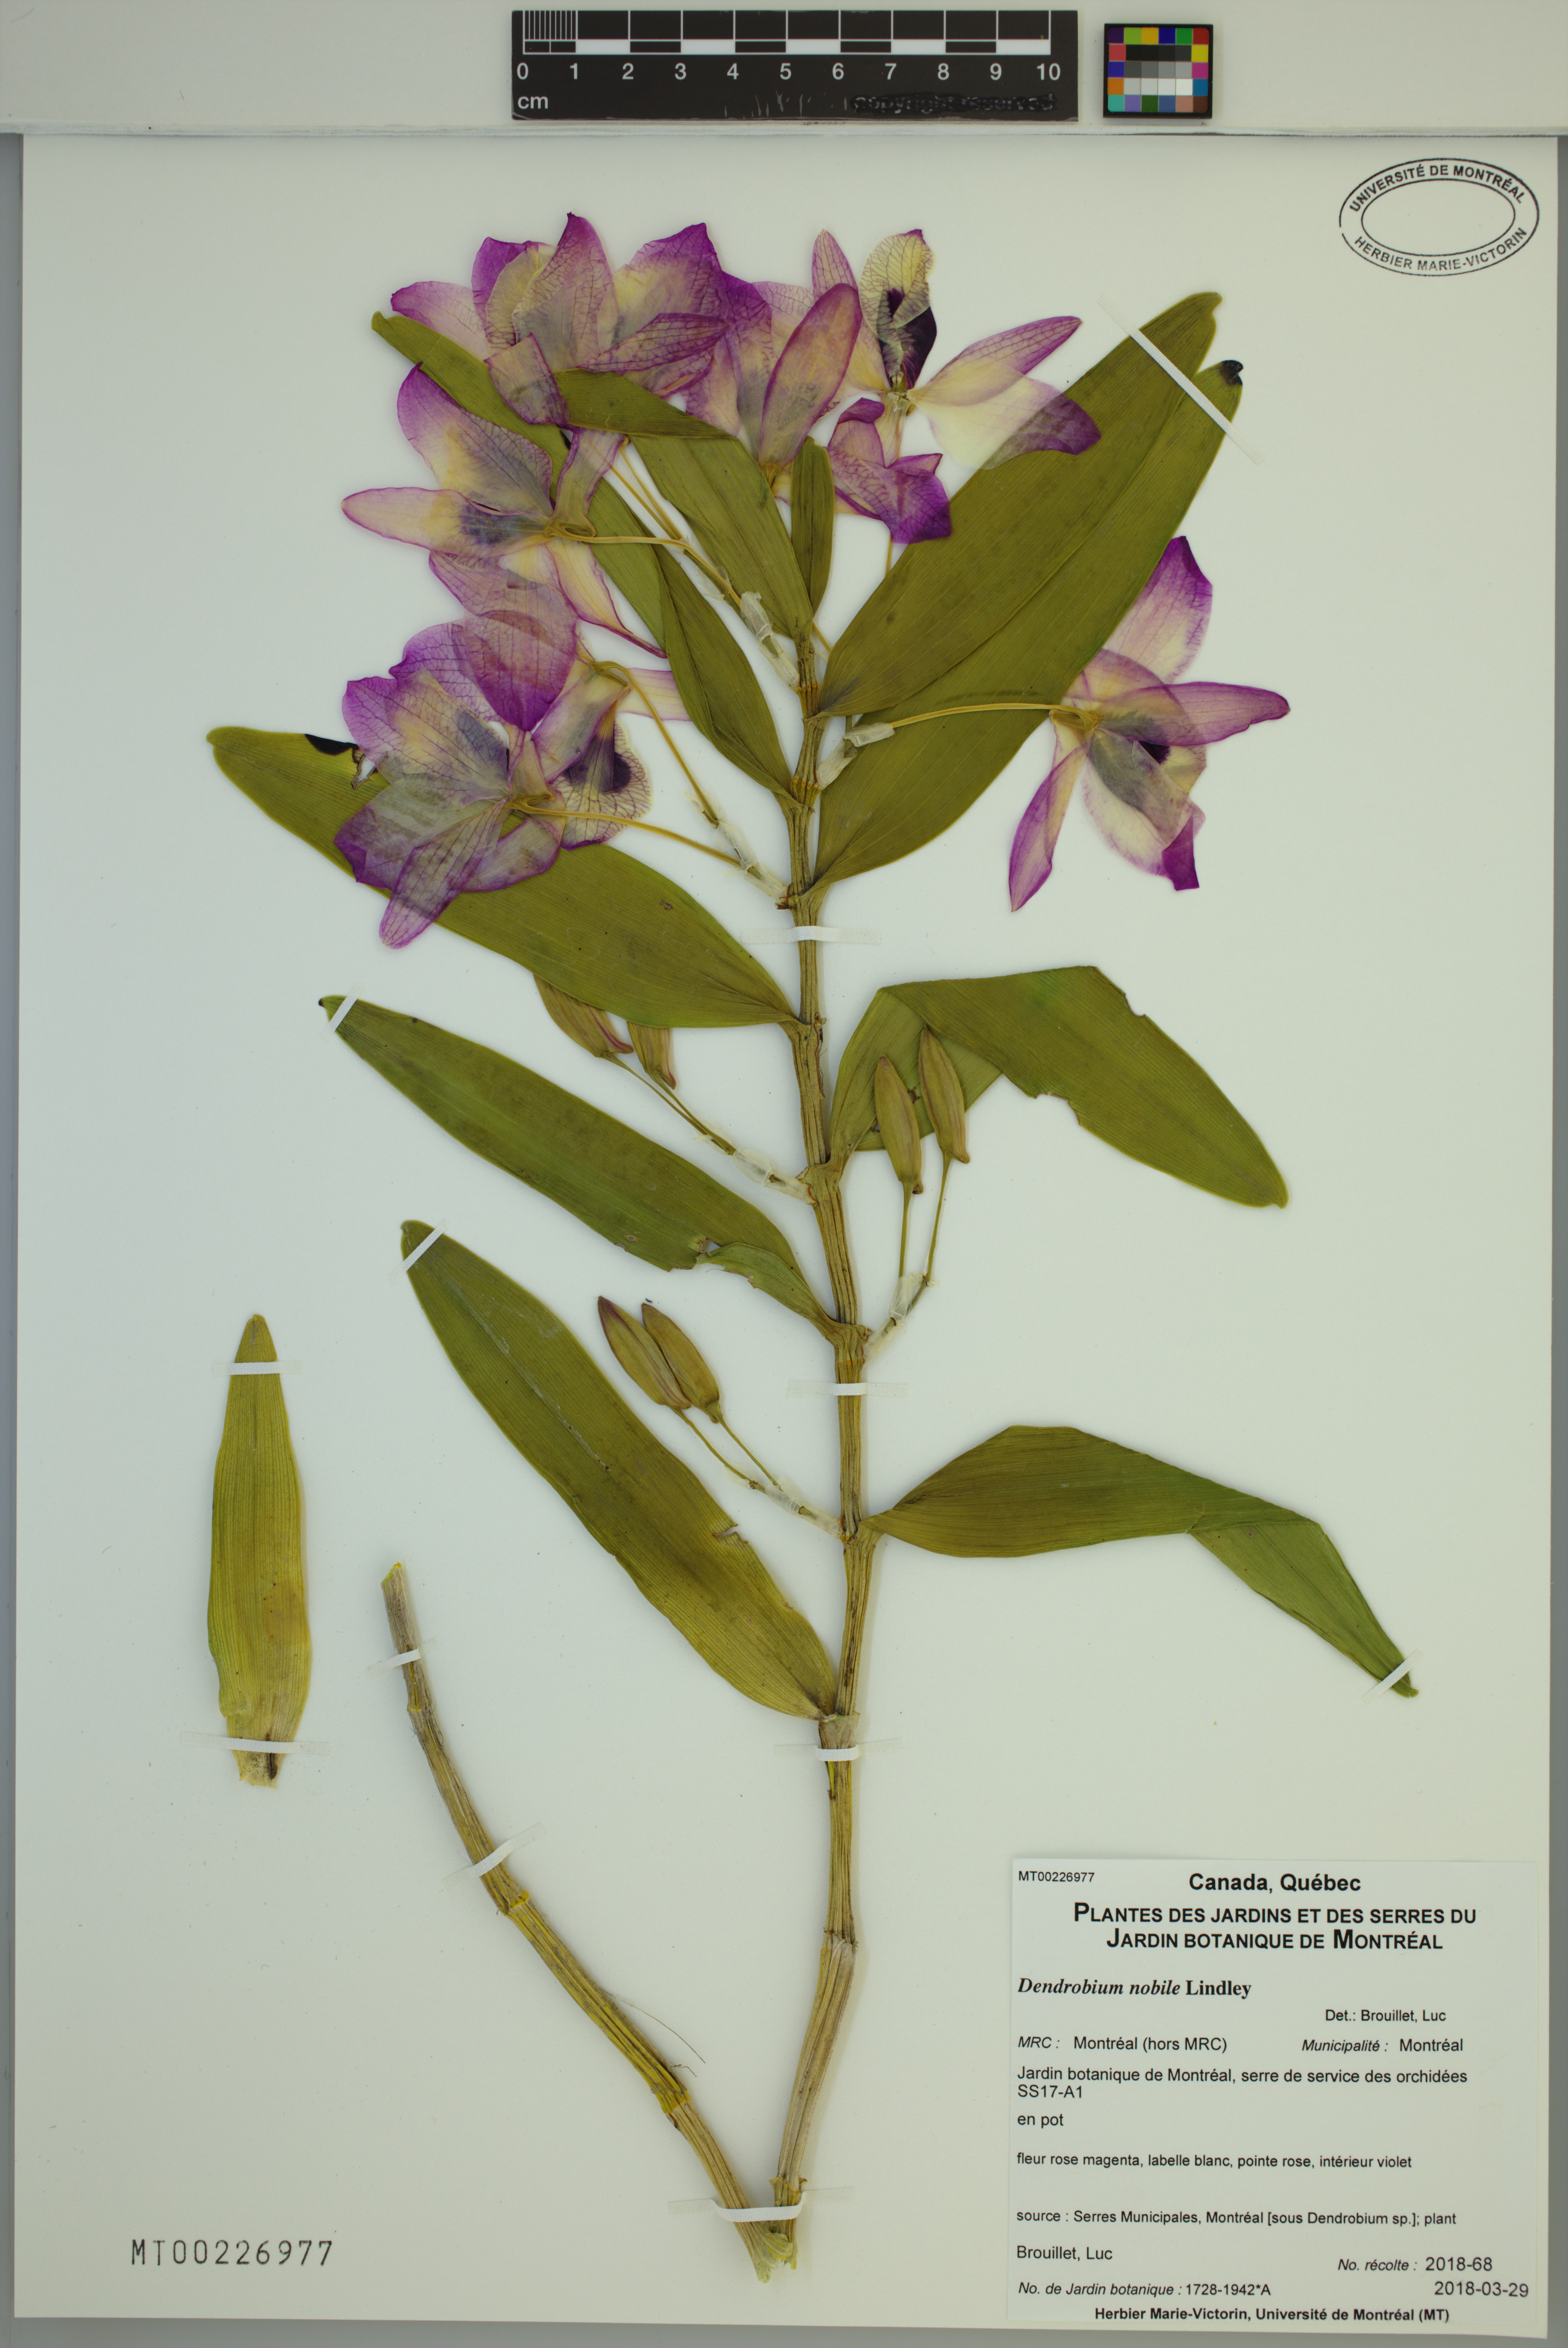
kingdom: Plantae
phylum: Tracheophyta
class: Liliopsida
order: Asparagales
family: Orchidaceae
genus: Dendrobium
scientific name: Dendrobium nobile
